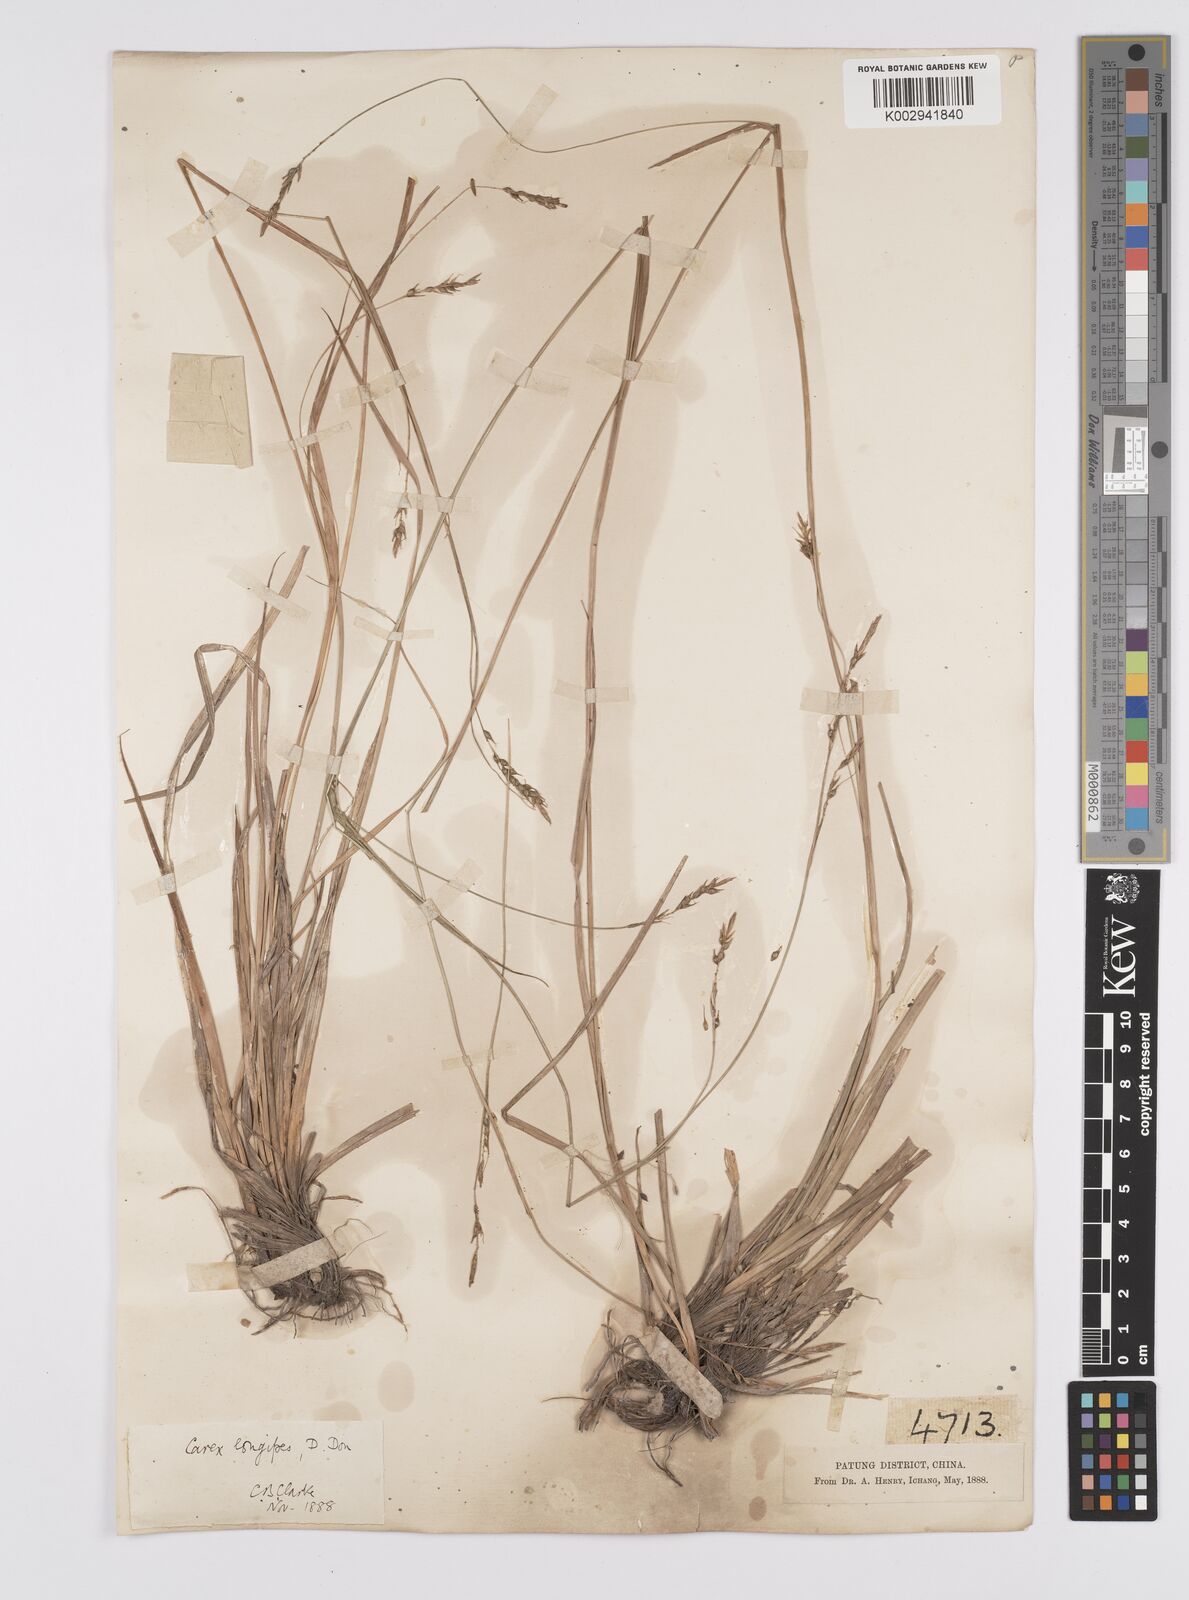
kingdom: Plantae
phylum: Tracheophyta
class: Liliopsida
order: Poales
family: Cyperaceae
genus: Carex
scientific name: Carex longipes
